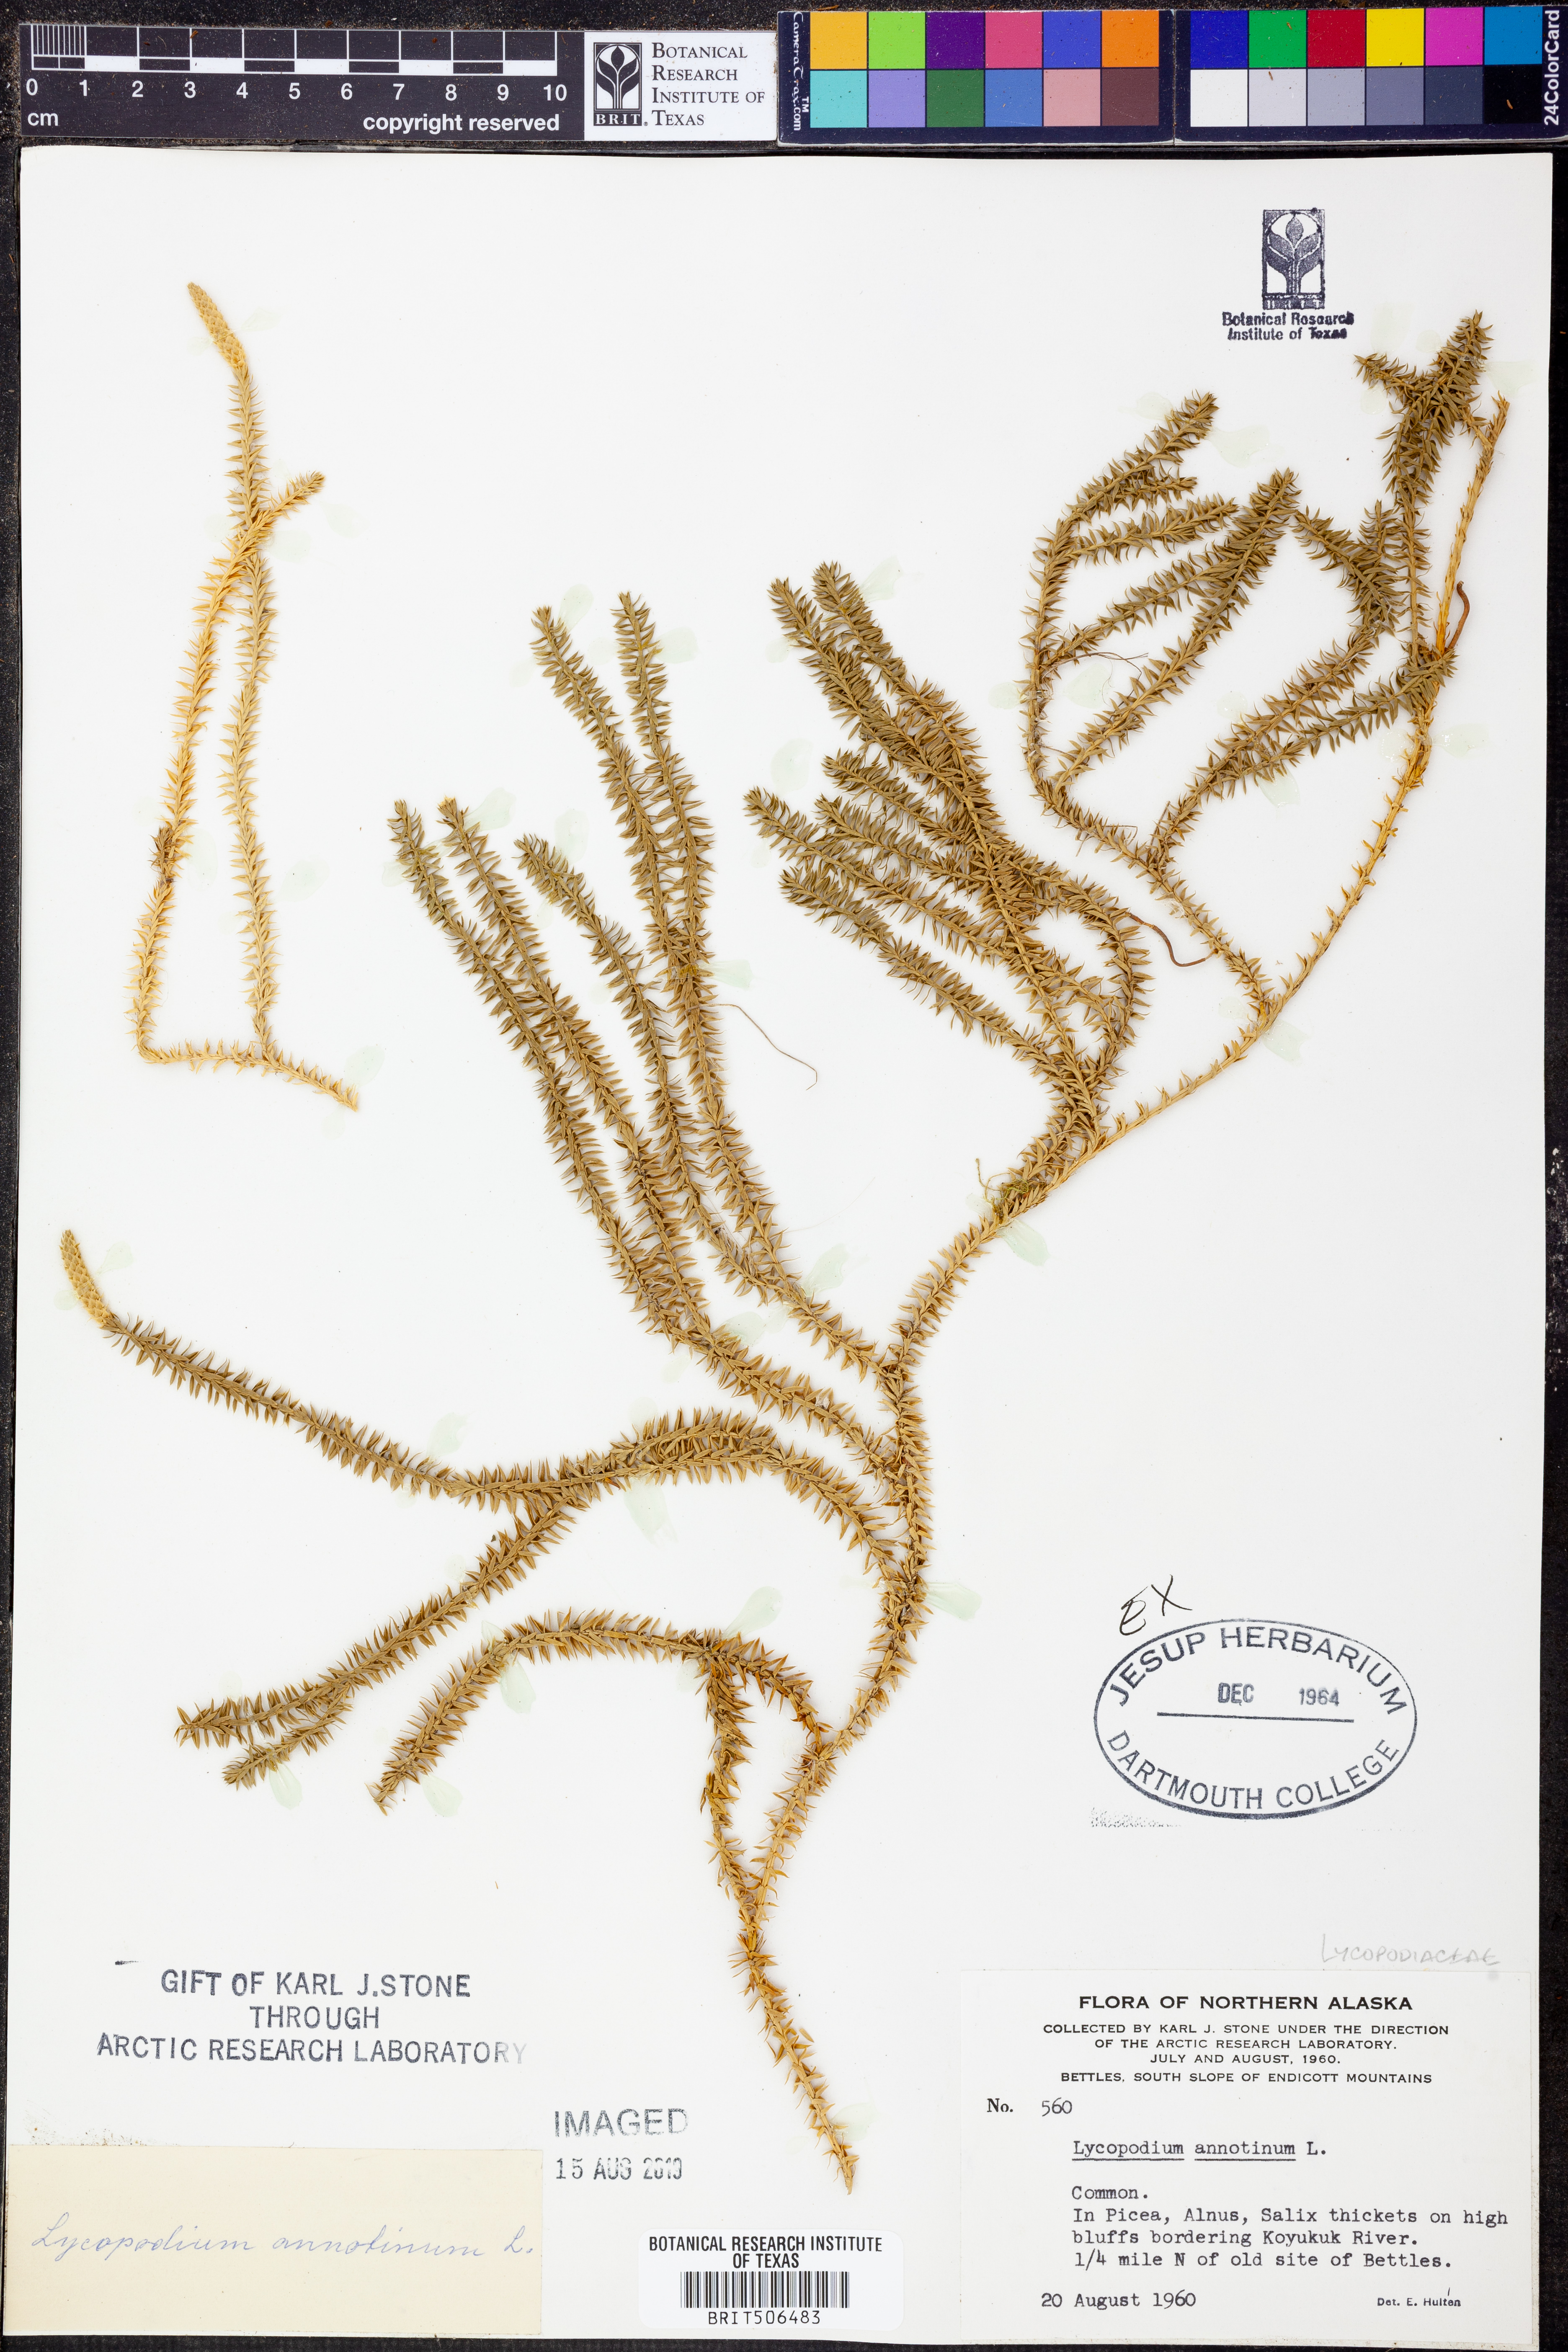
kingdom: Plantae
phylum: Tracheophyta
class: Lycopodiopsida
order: Lycopodiales
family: Lycopodiaceae
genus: Spinulum
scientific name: Spinulum annotinum
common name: Interrupted club-moss
